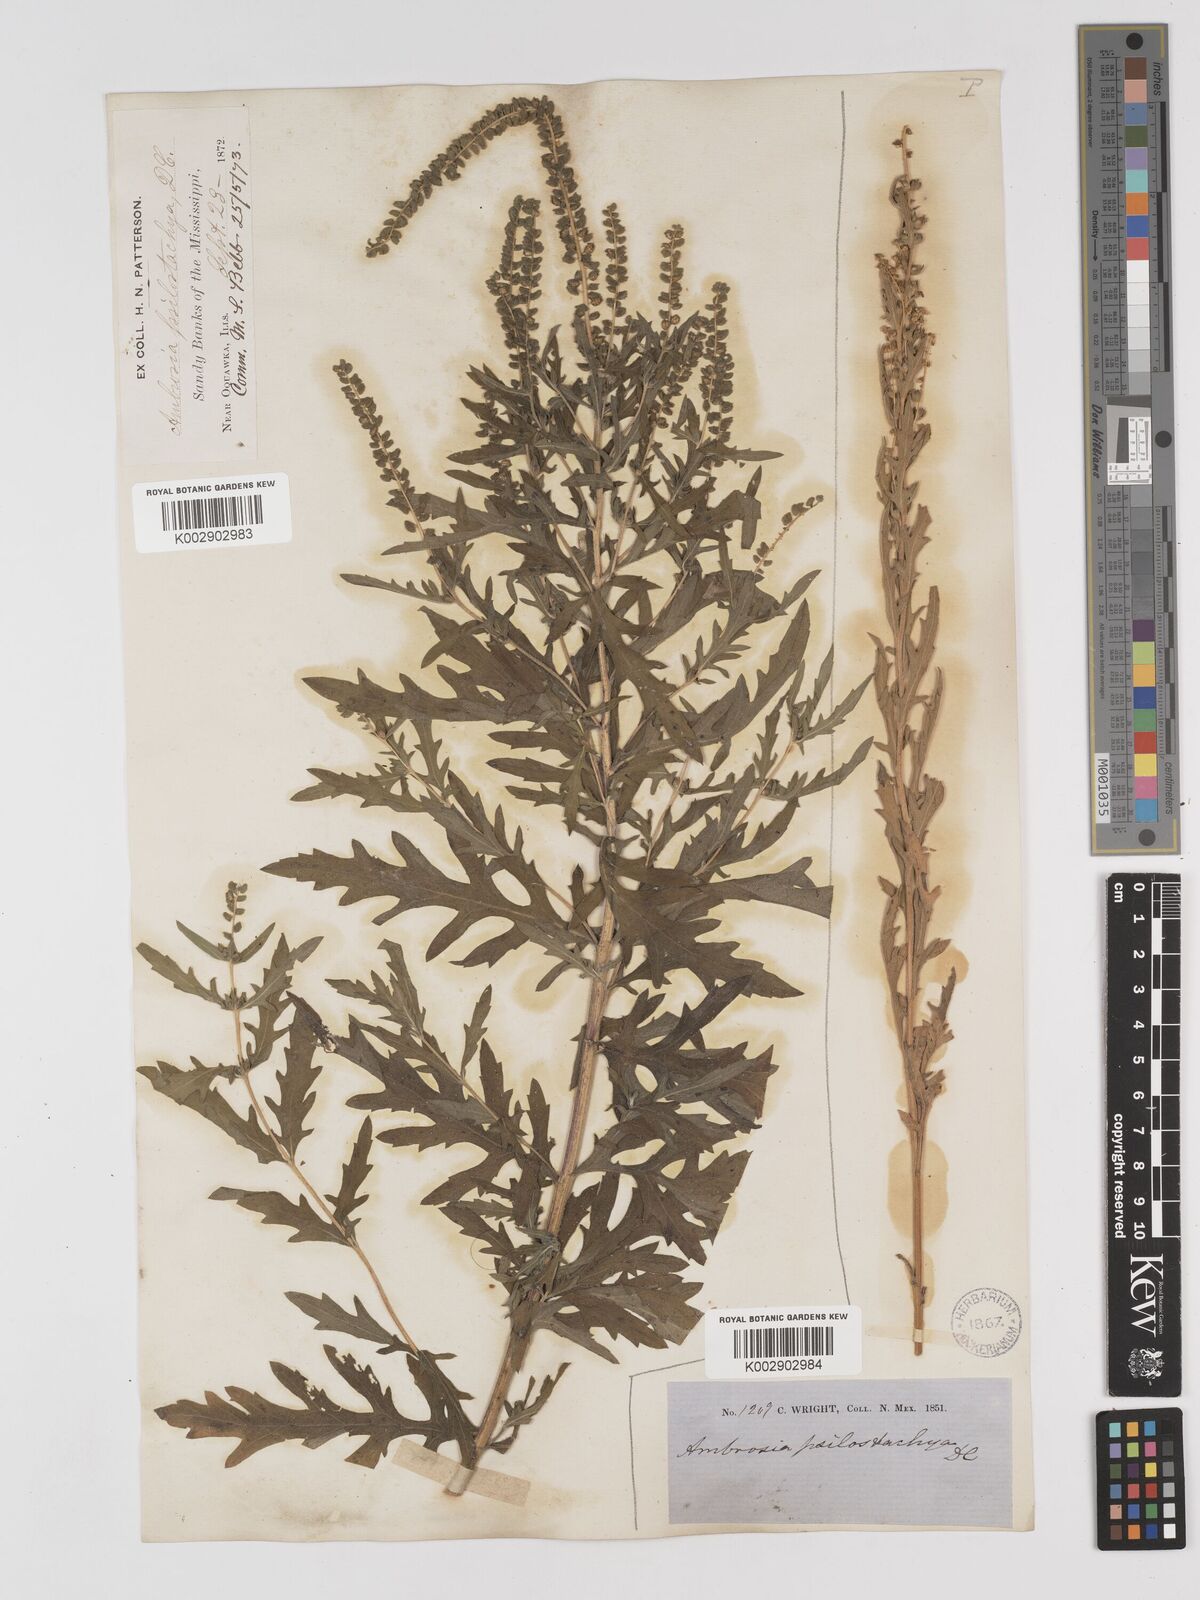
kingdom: Plantae
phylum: Tracheophyta
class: Magnoliopsida
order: Asterales
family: Asteraceae
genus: Ambrosia
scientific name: Ambrosia psilostachya
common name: Perennial ragweed
